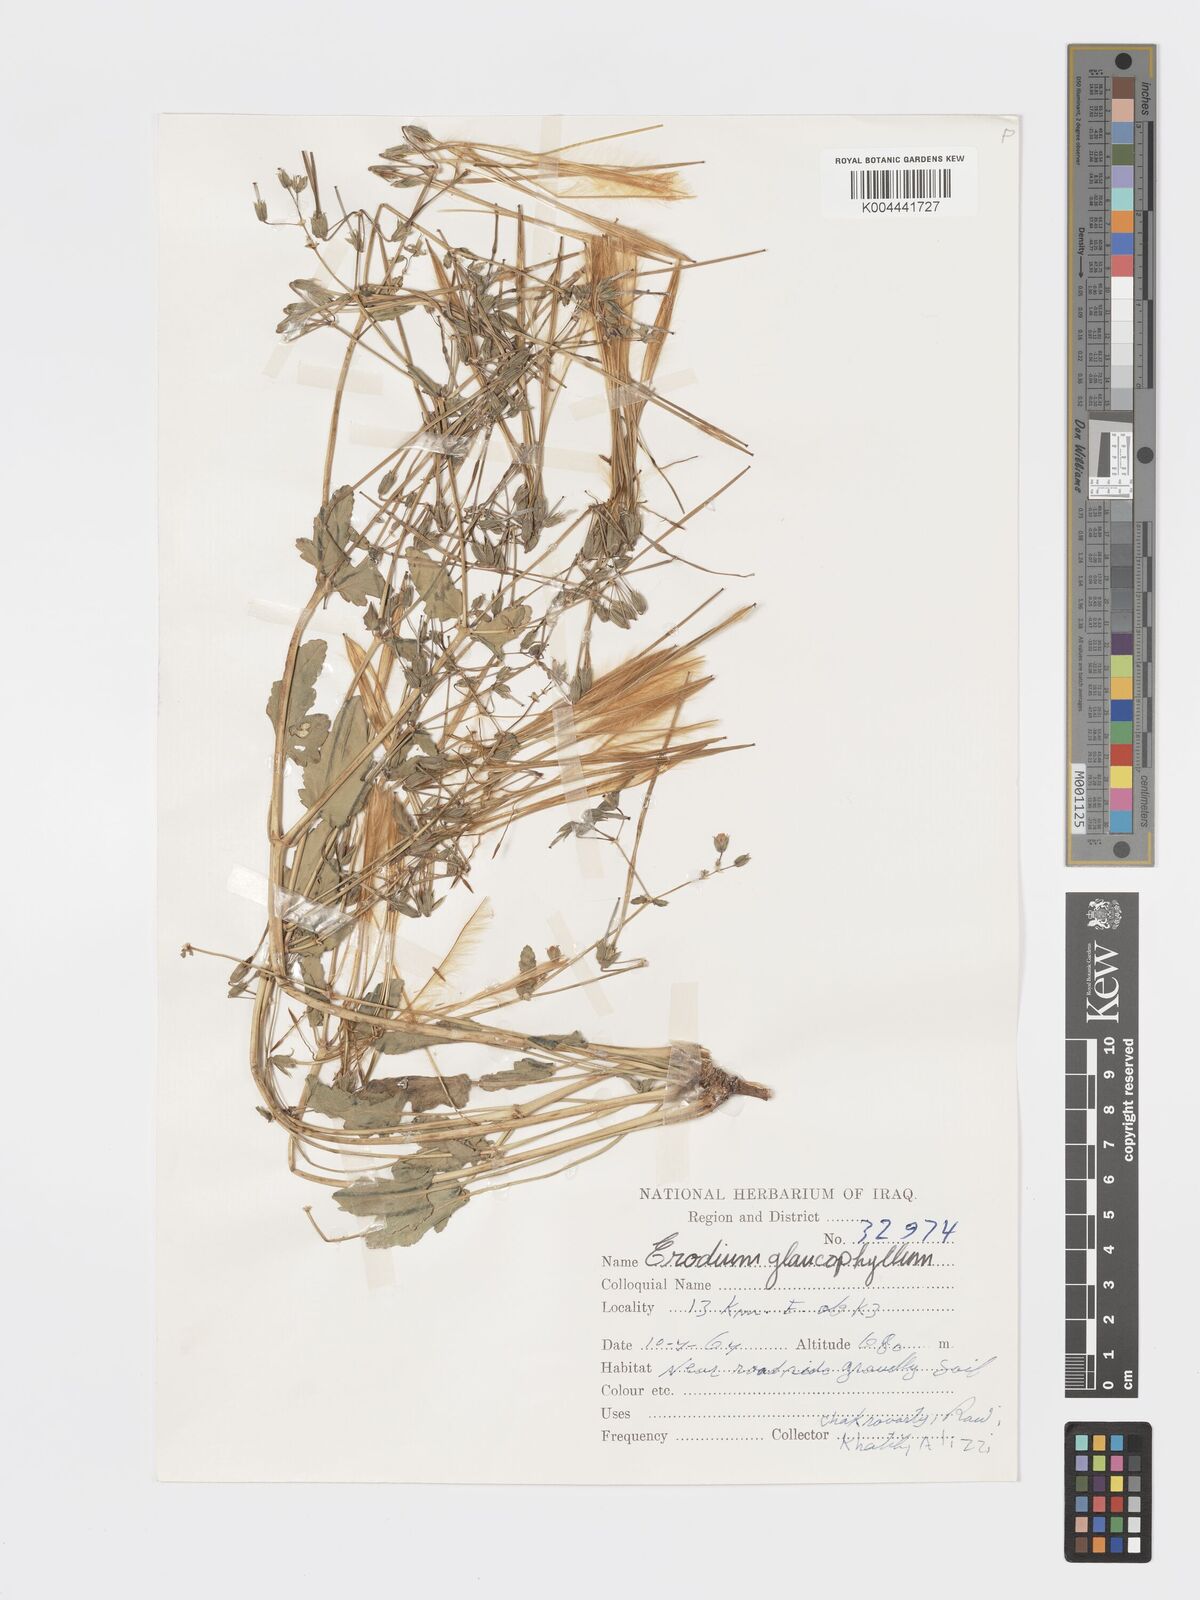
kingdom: Plantae
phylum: Tracheophyta
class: Magnoliopsida
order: Geraniales
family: Geraniaceae
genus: Erodium
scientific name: Erodium glaucophyllum
